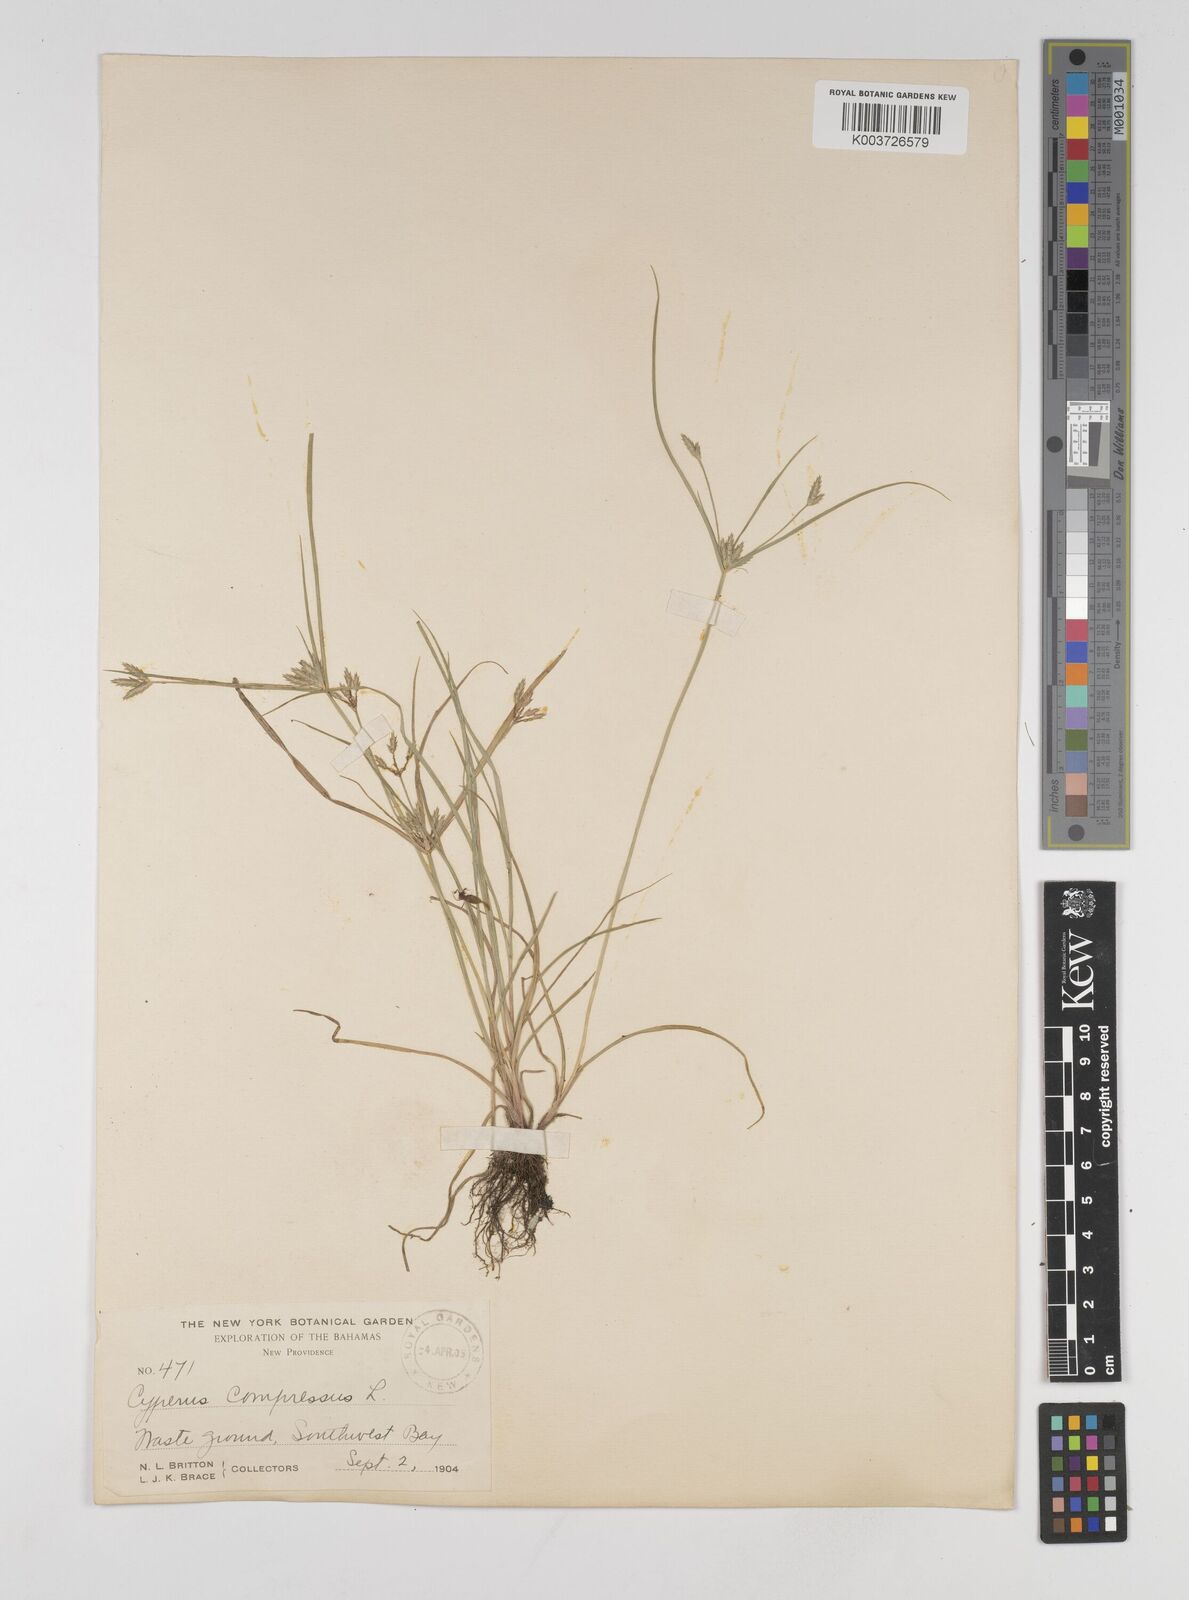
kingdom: Plantae
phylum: Tracheophyta
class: Liliopsida
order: Poales
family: Cyperaceae
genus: Cyperus
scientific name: Cyperus compressus
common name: Poorland flatsedge
